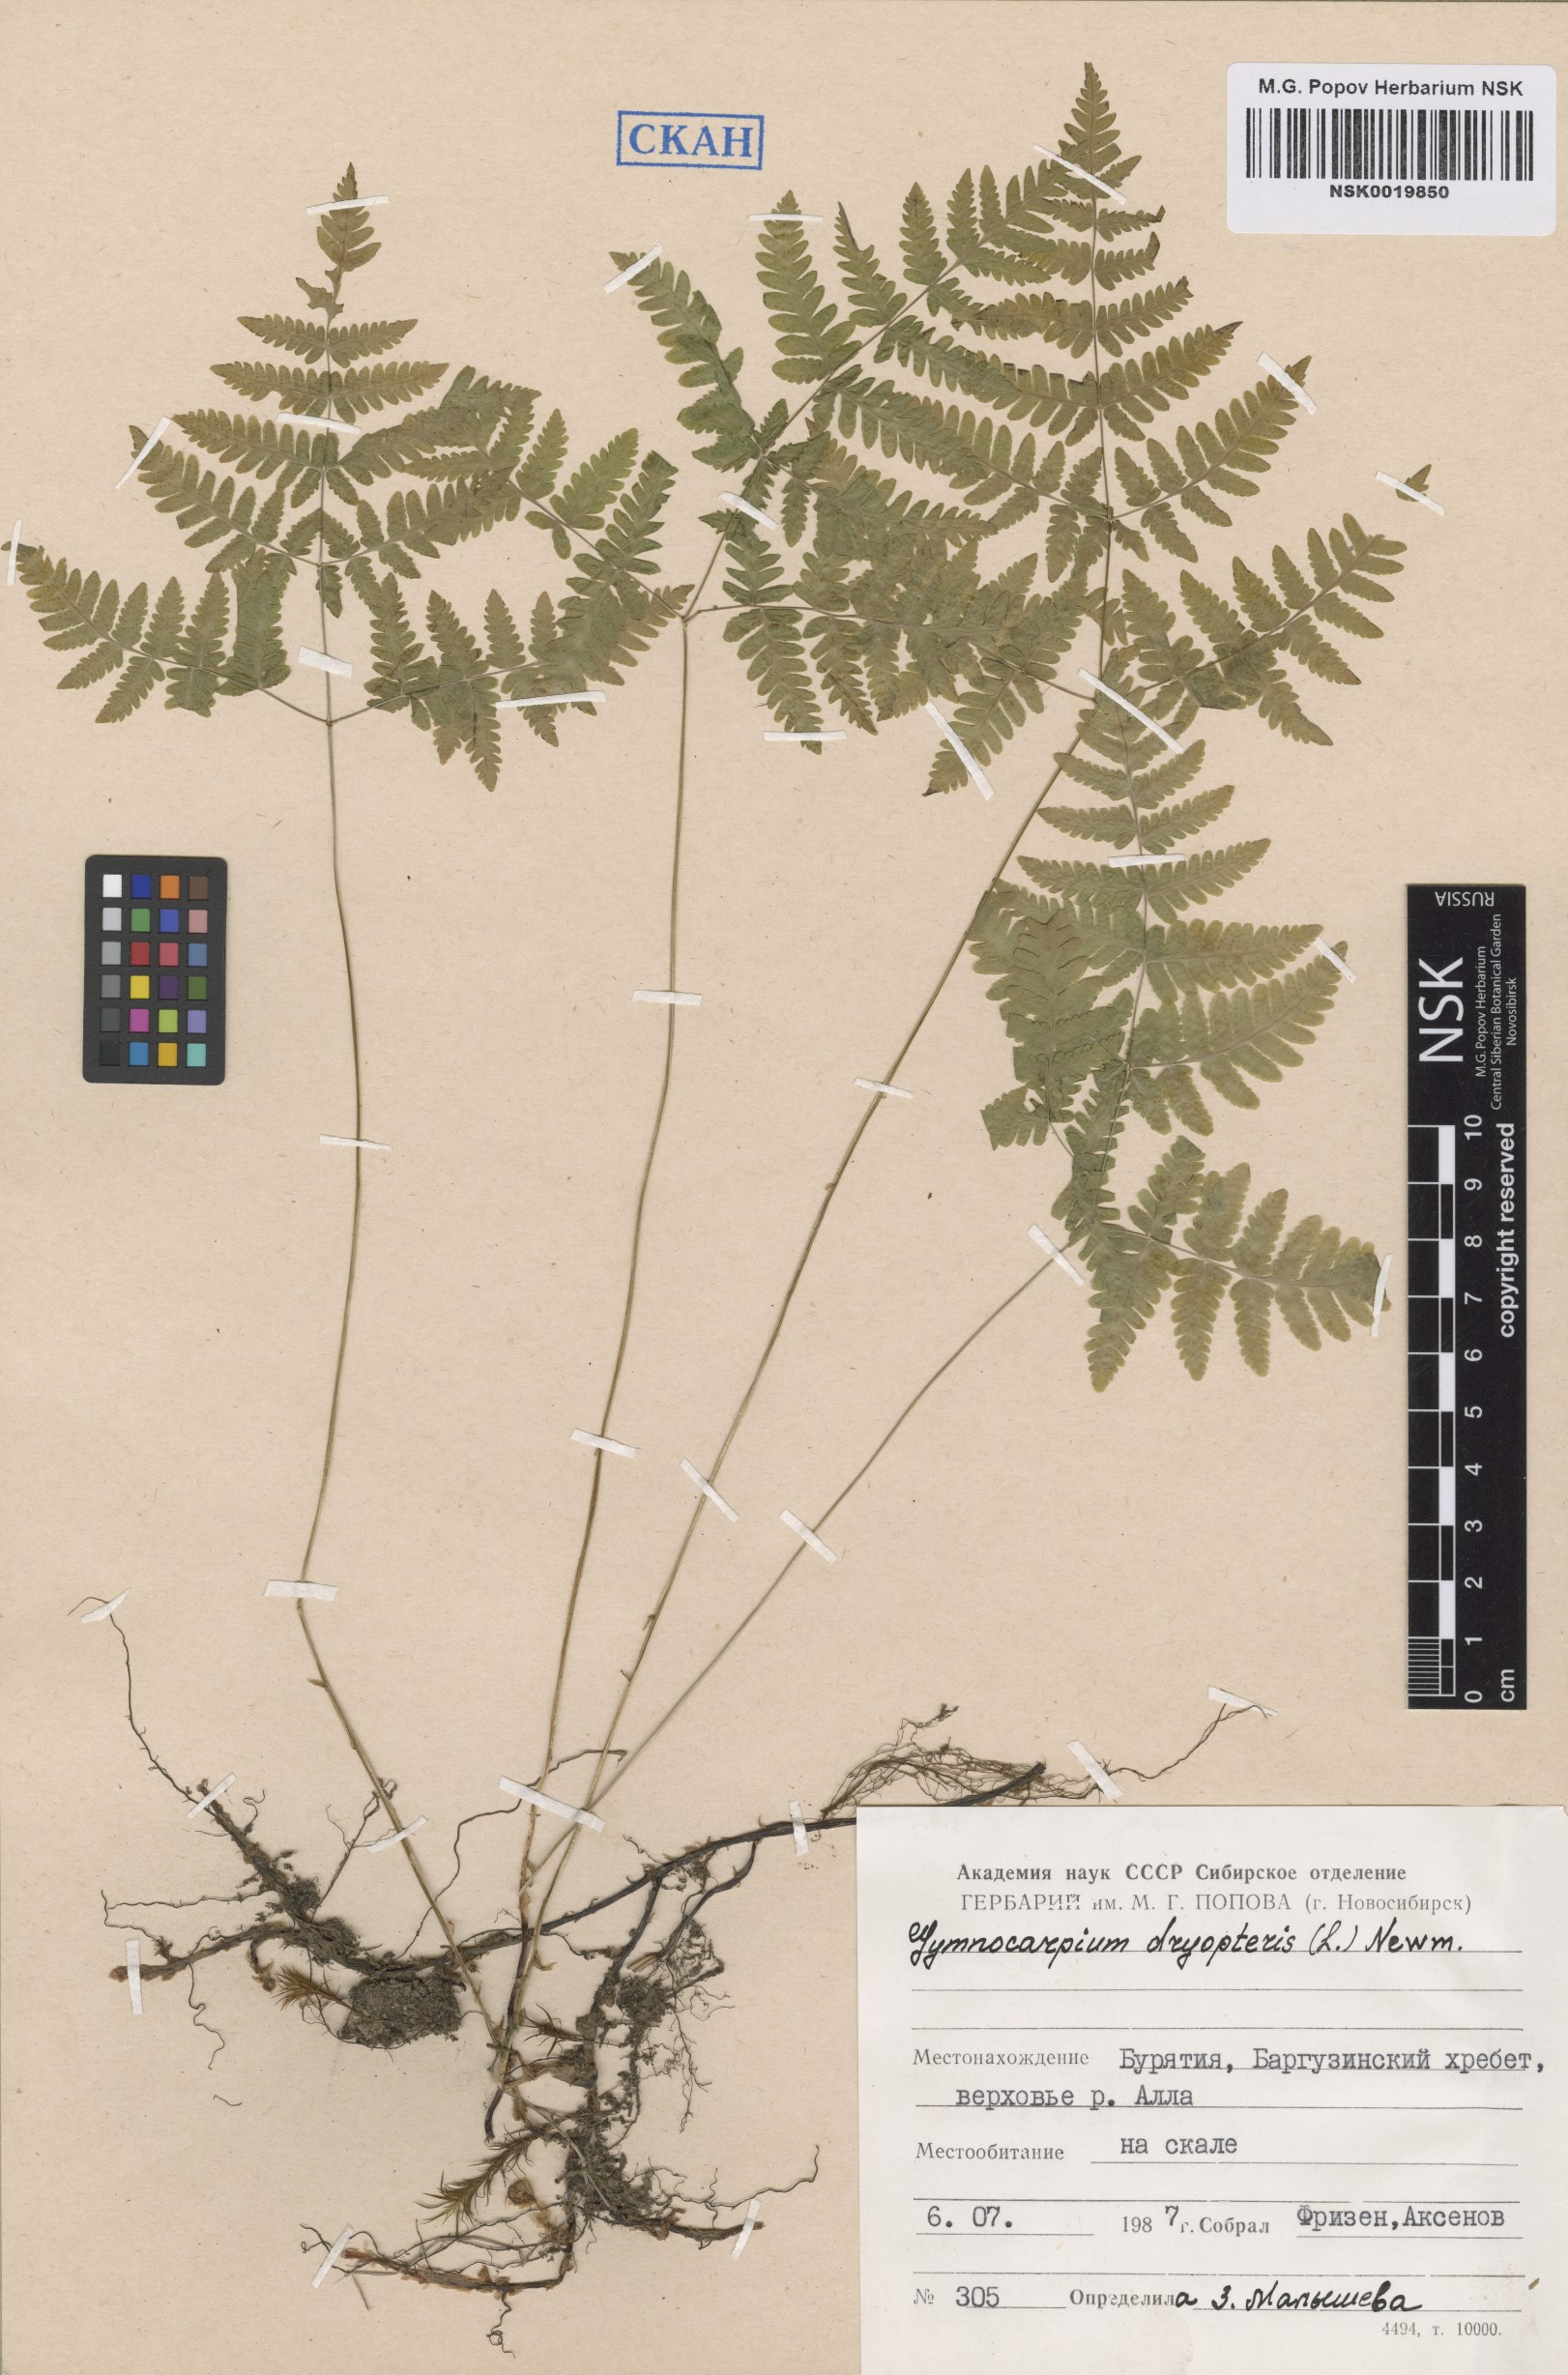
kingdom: Plantae
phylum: Tracheophyta
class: Polypodiopsida
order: Polypodiales
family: Cystopteridaceae
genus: Gymnocarpium
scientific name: Gymnocarpium dryopteris
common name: Oak fern
